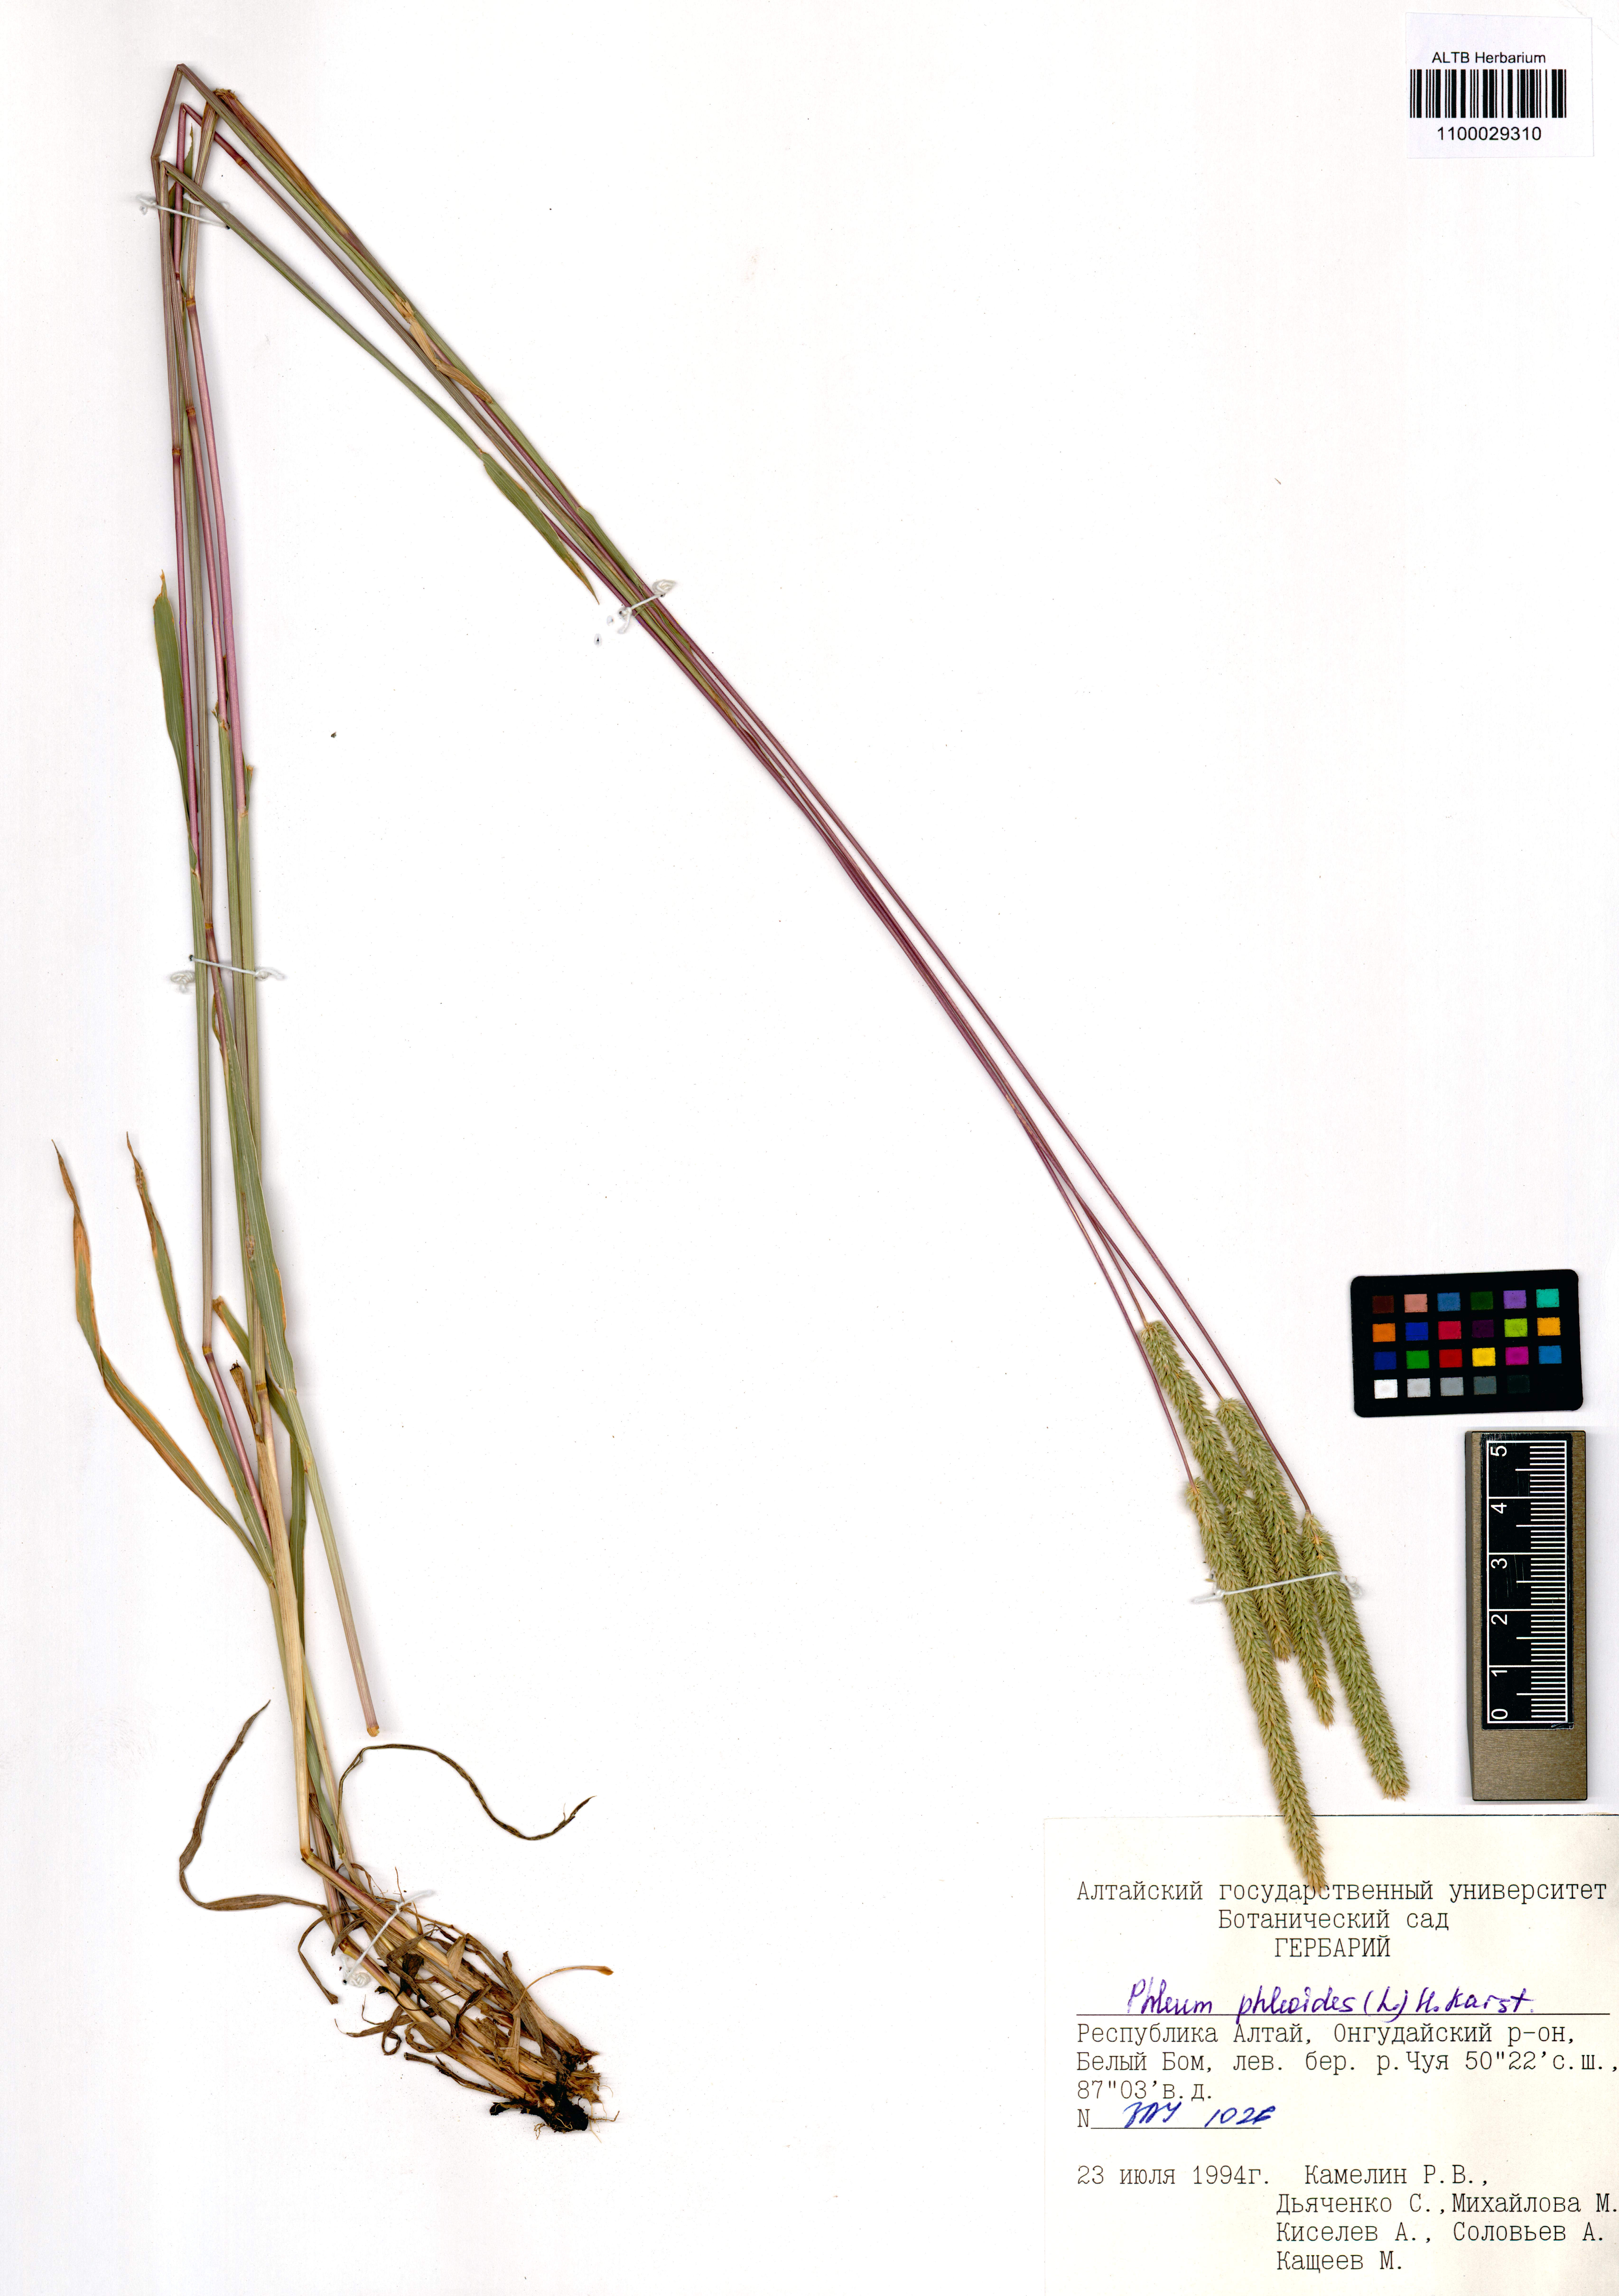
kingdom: Plantae
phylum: Tracheophyta
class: Magnoliopsida
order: Lamiales
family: Plantaginaceae
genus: Veronica
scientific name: Veronica krylovii
